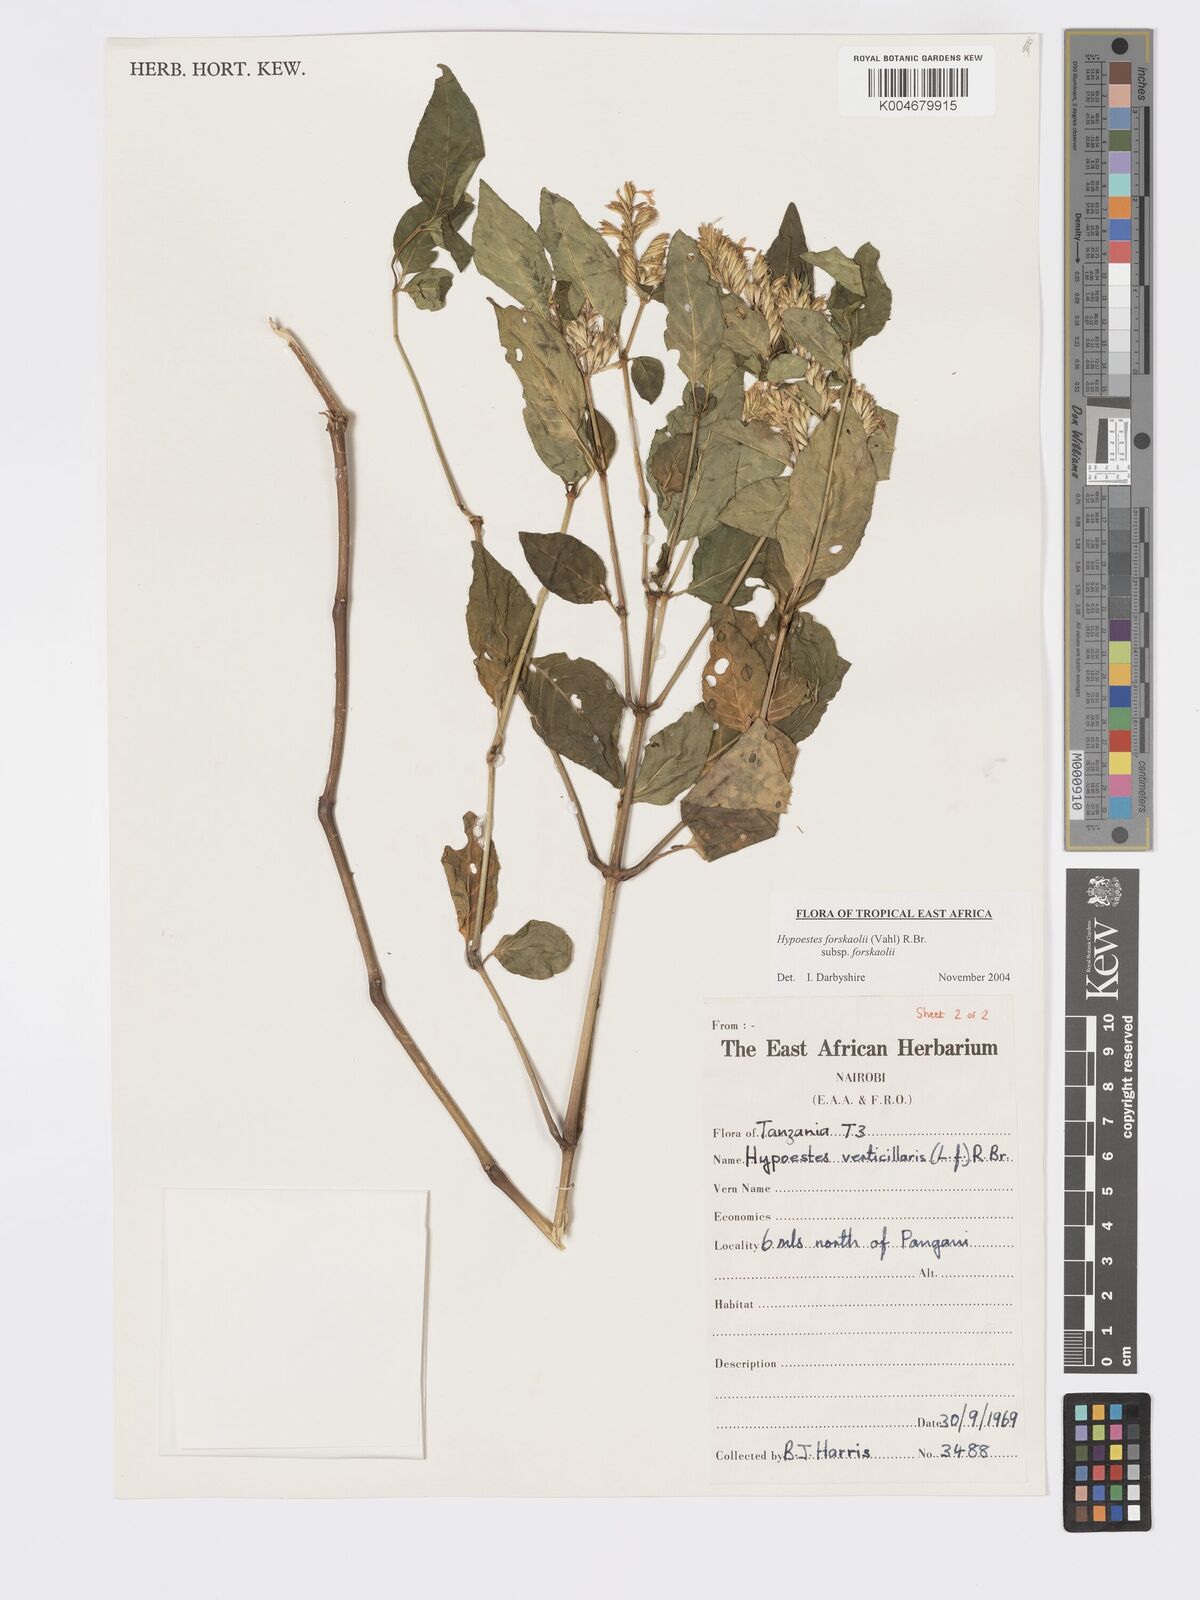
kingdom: Plantae
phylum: Tracheophyta
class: Magnoliopsida
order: Lamiales
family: Acanthaceae
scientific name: Acanthaceae
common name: Acanthaceae
